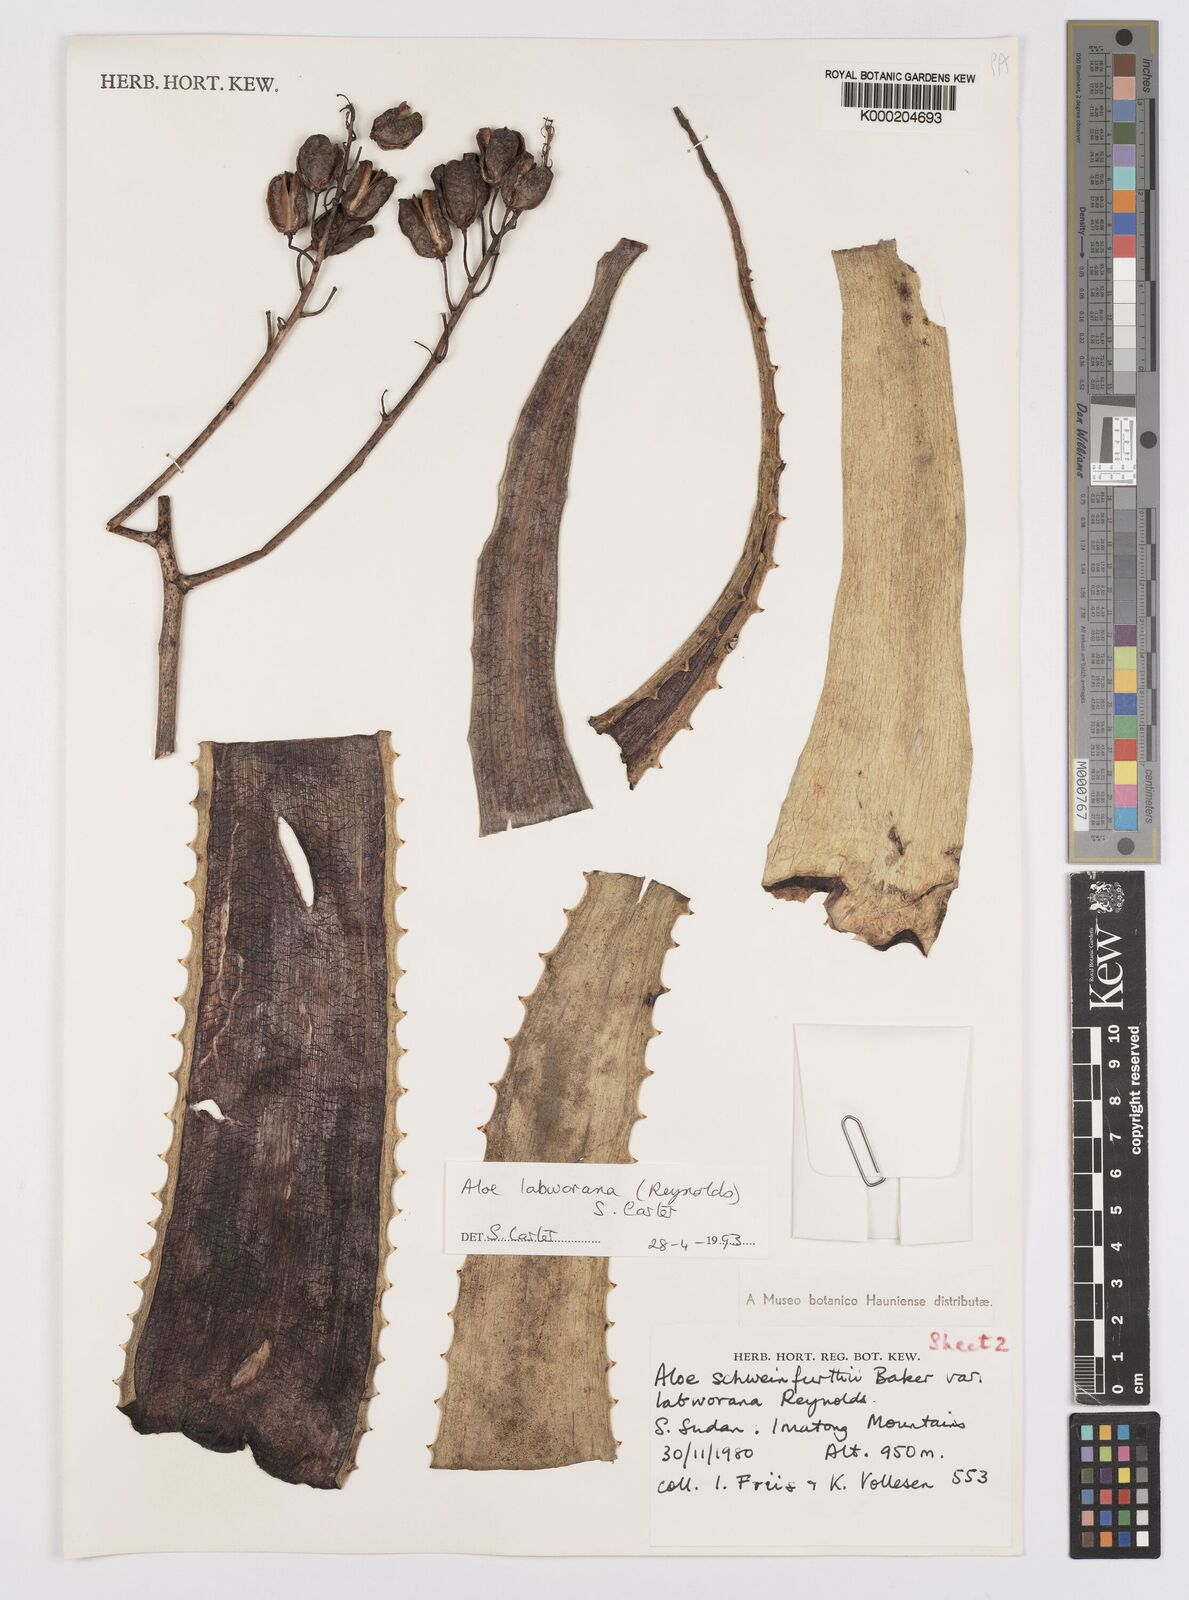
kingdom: Plantae
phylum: Tracheophyta
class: Liliopsida
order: Asparagales
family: Asphodelaceae
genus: Aloe
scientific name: Aloe labworana
